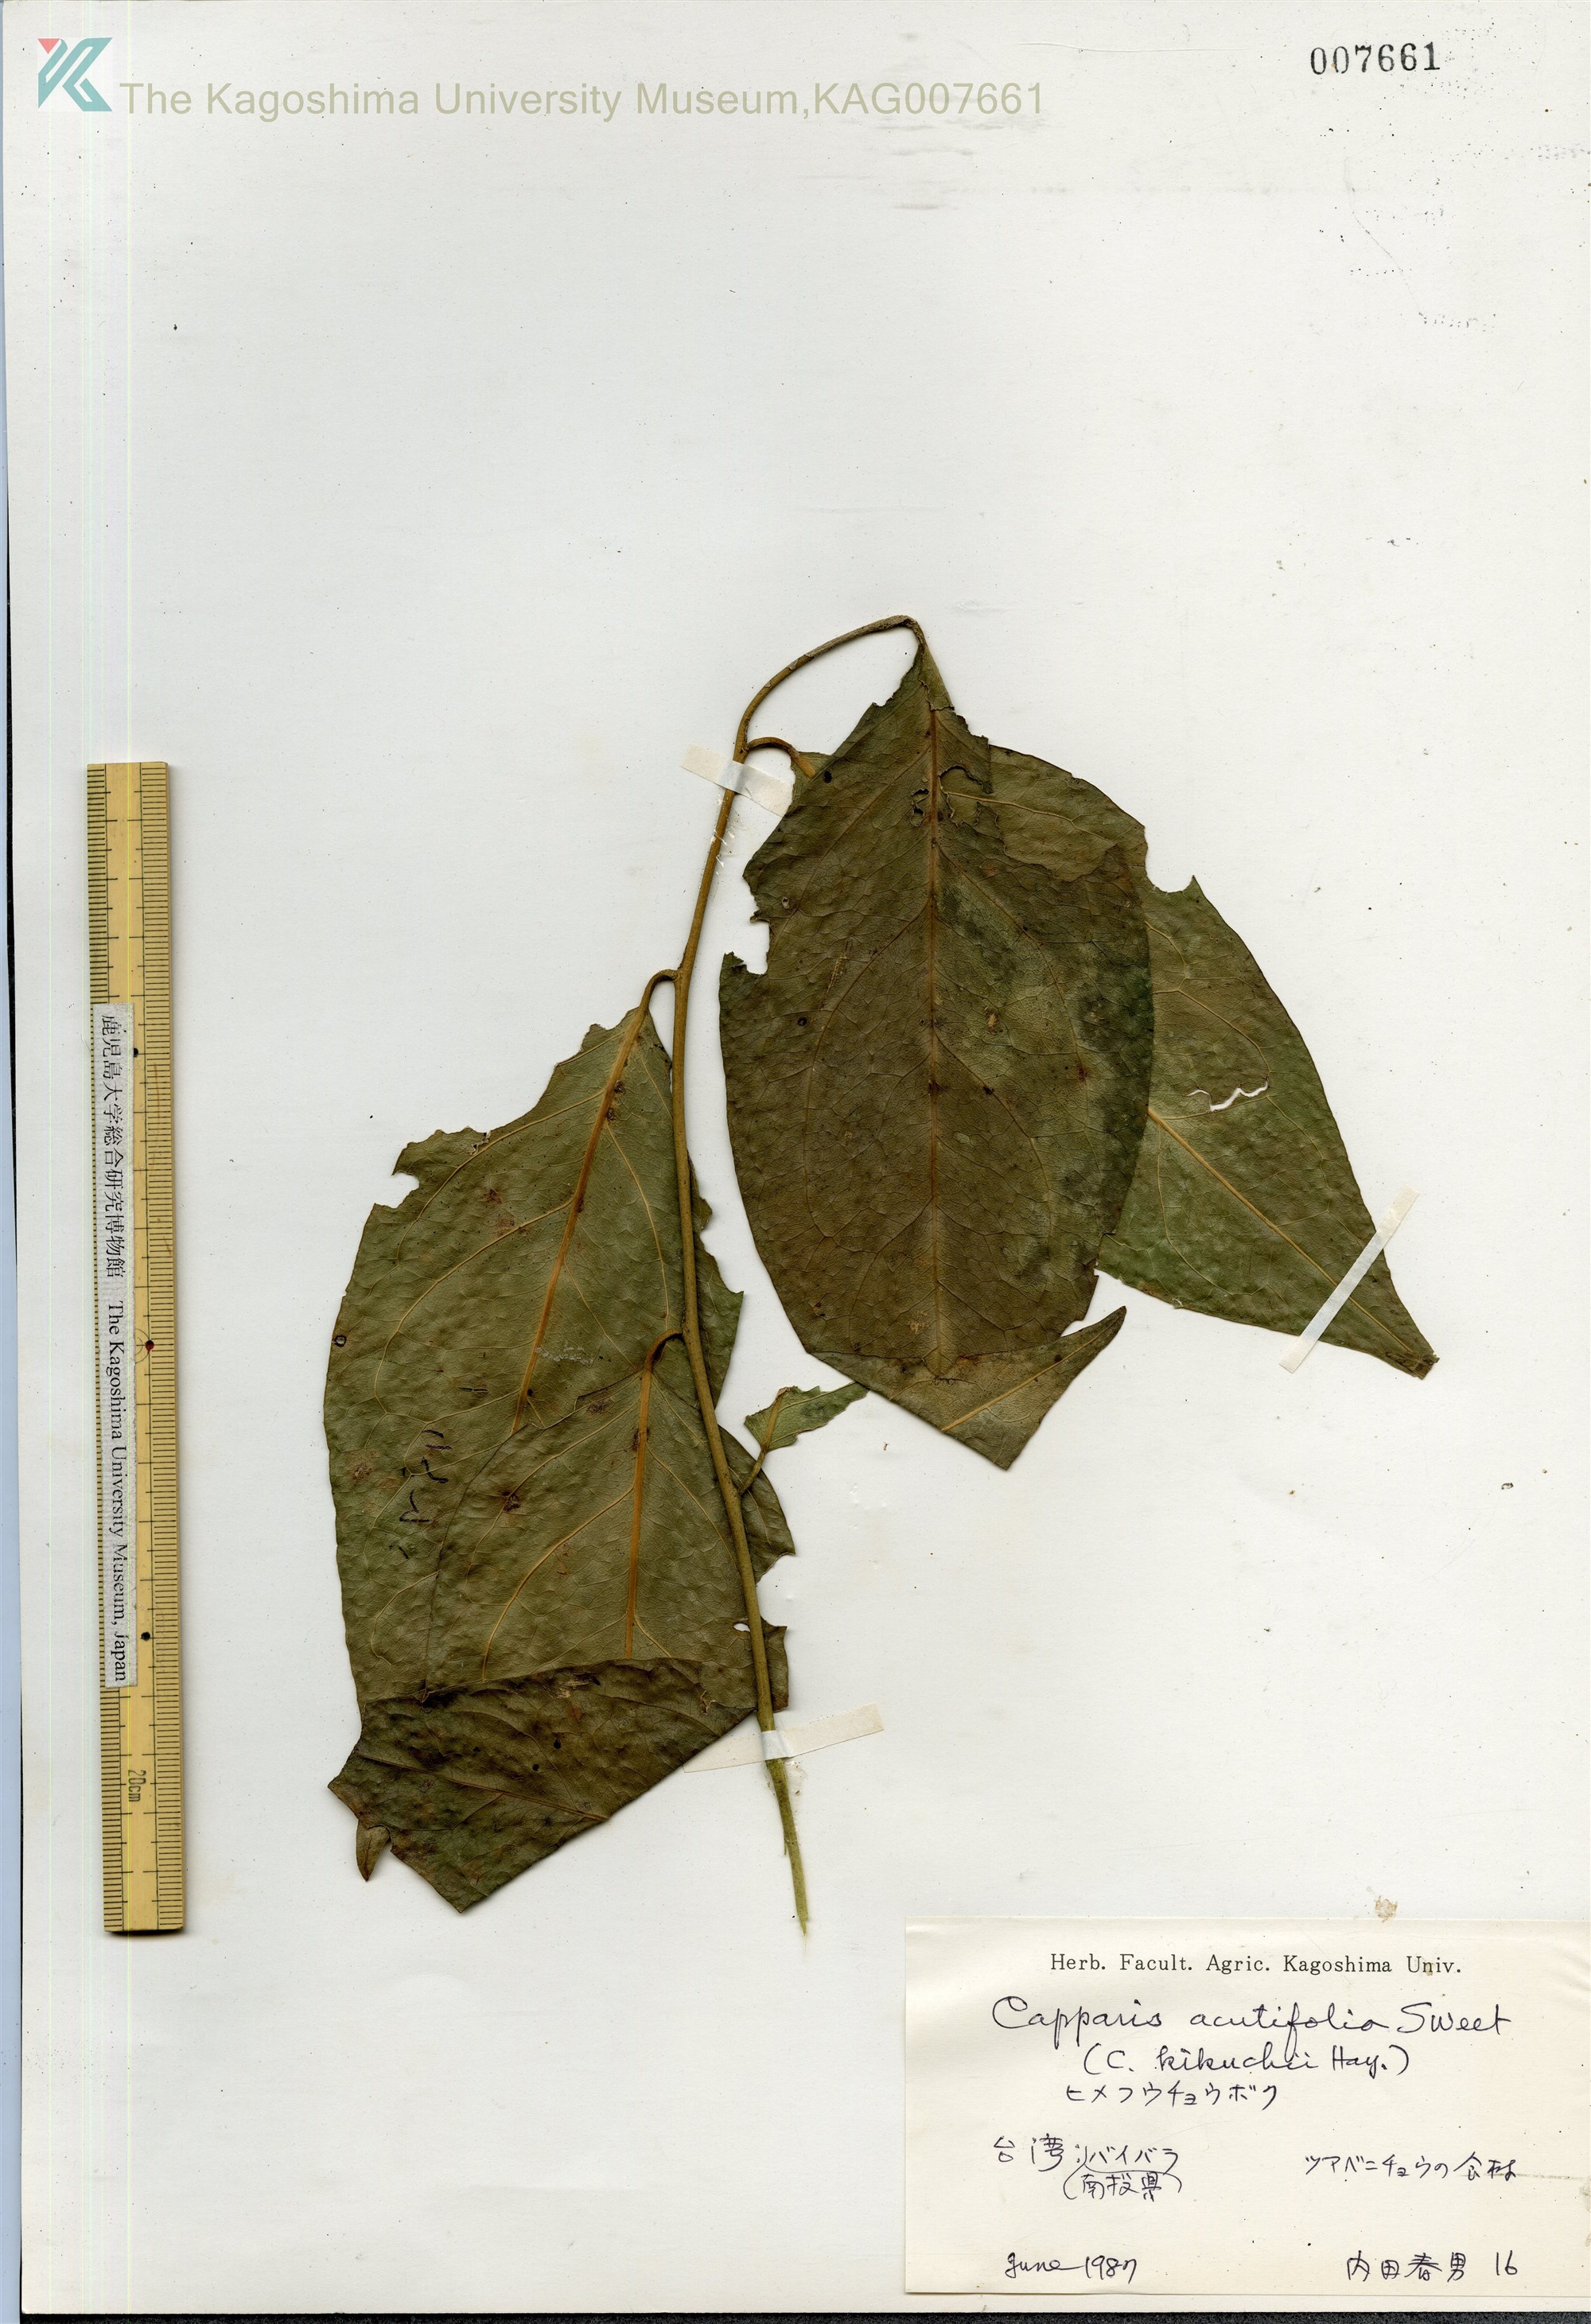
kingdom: Plantae
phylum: Tracheophyta
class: Magnoliopsida
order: Brassicales
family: Capparaceae
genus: Capparis
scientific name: Capparis acutifolia
